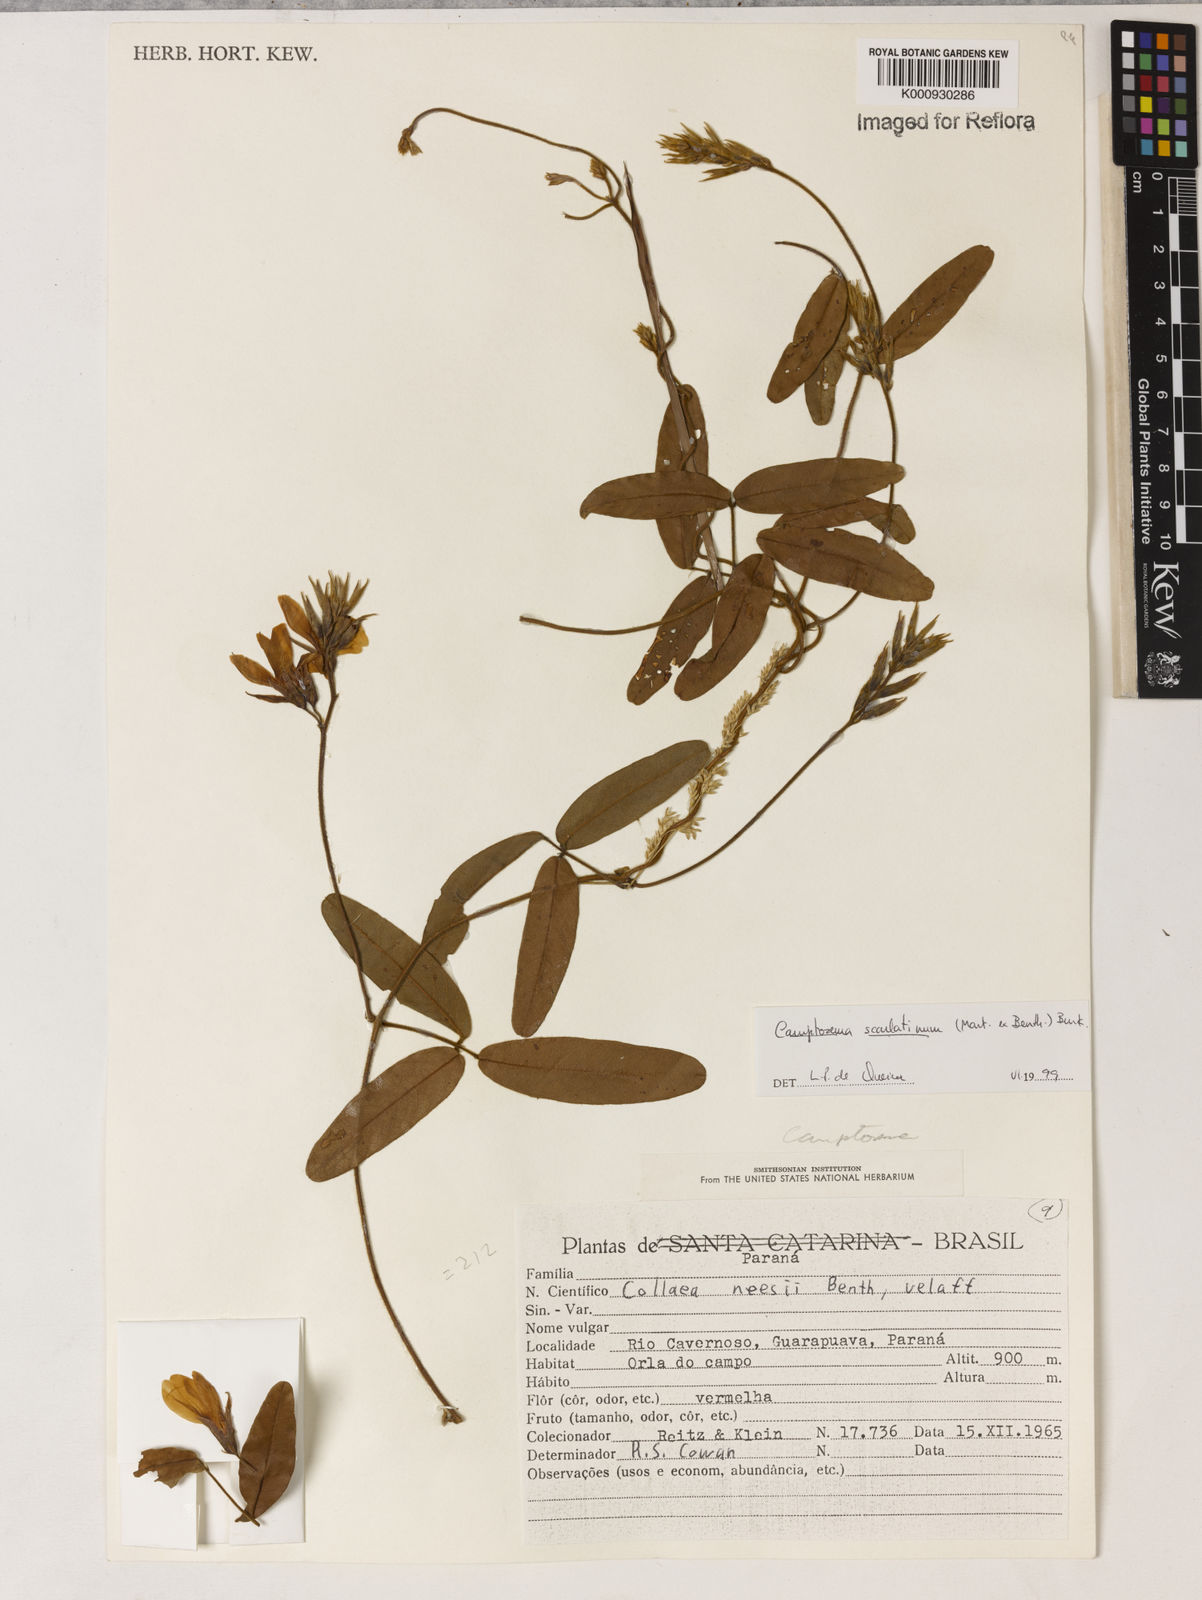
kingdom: Plantae
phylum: Tracheophyta
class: Magnoliopsida
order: Fabales
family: Fabaceae
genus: Betencourtia
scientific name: Betencourtia scarlatina
